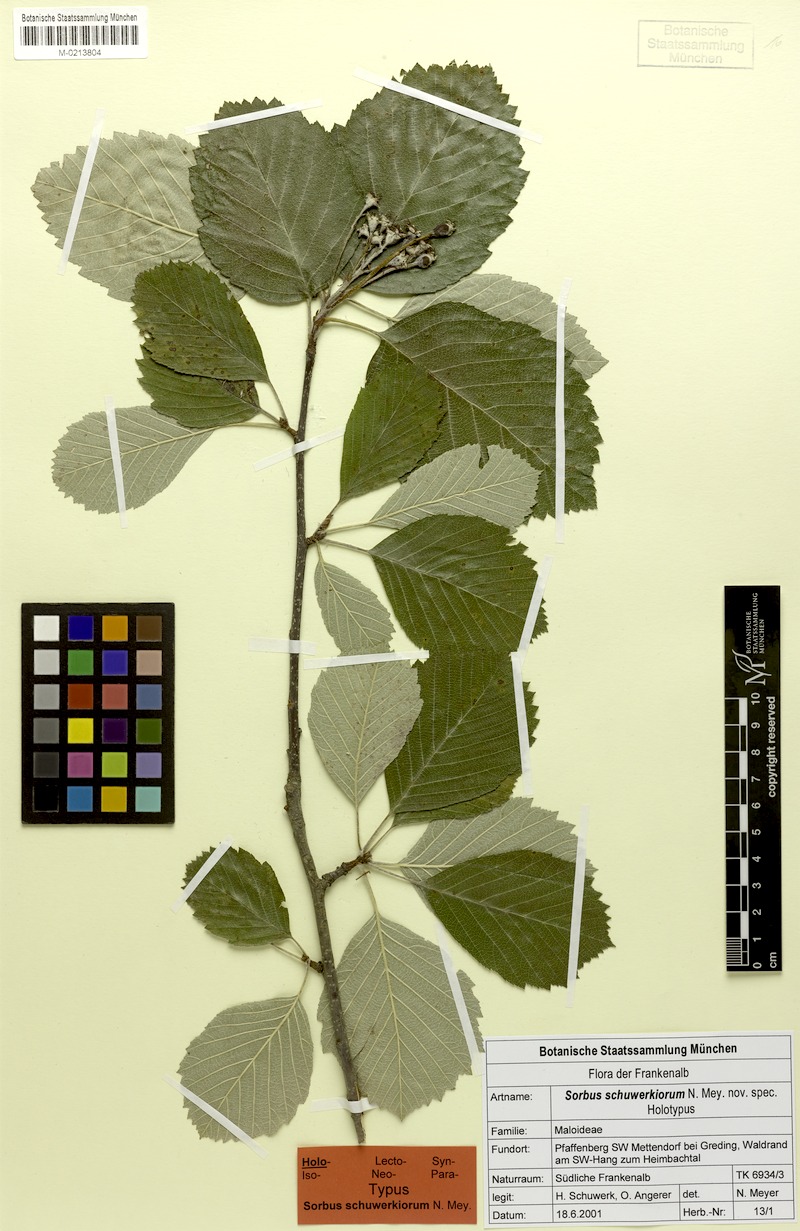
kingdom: Plantae
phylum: Tracheophyta
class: Magnoliopsida
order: Rosales
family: Rosaceae
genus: Karpatiosorbus
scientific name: Karpatiosorbus schuwerkiorum
